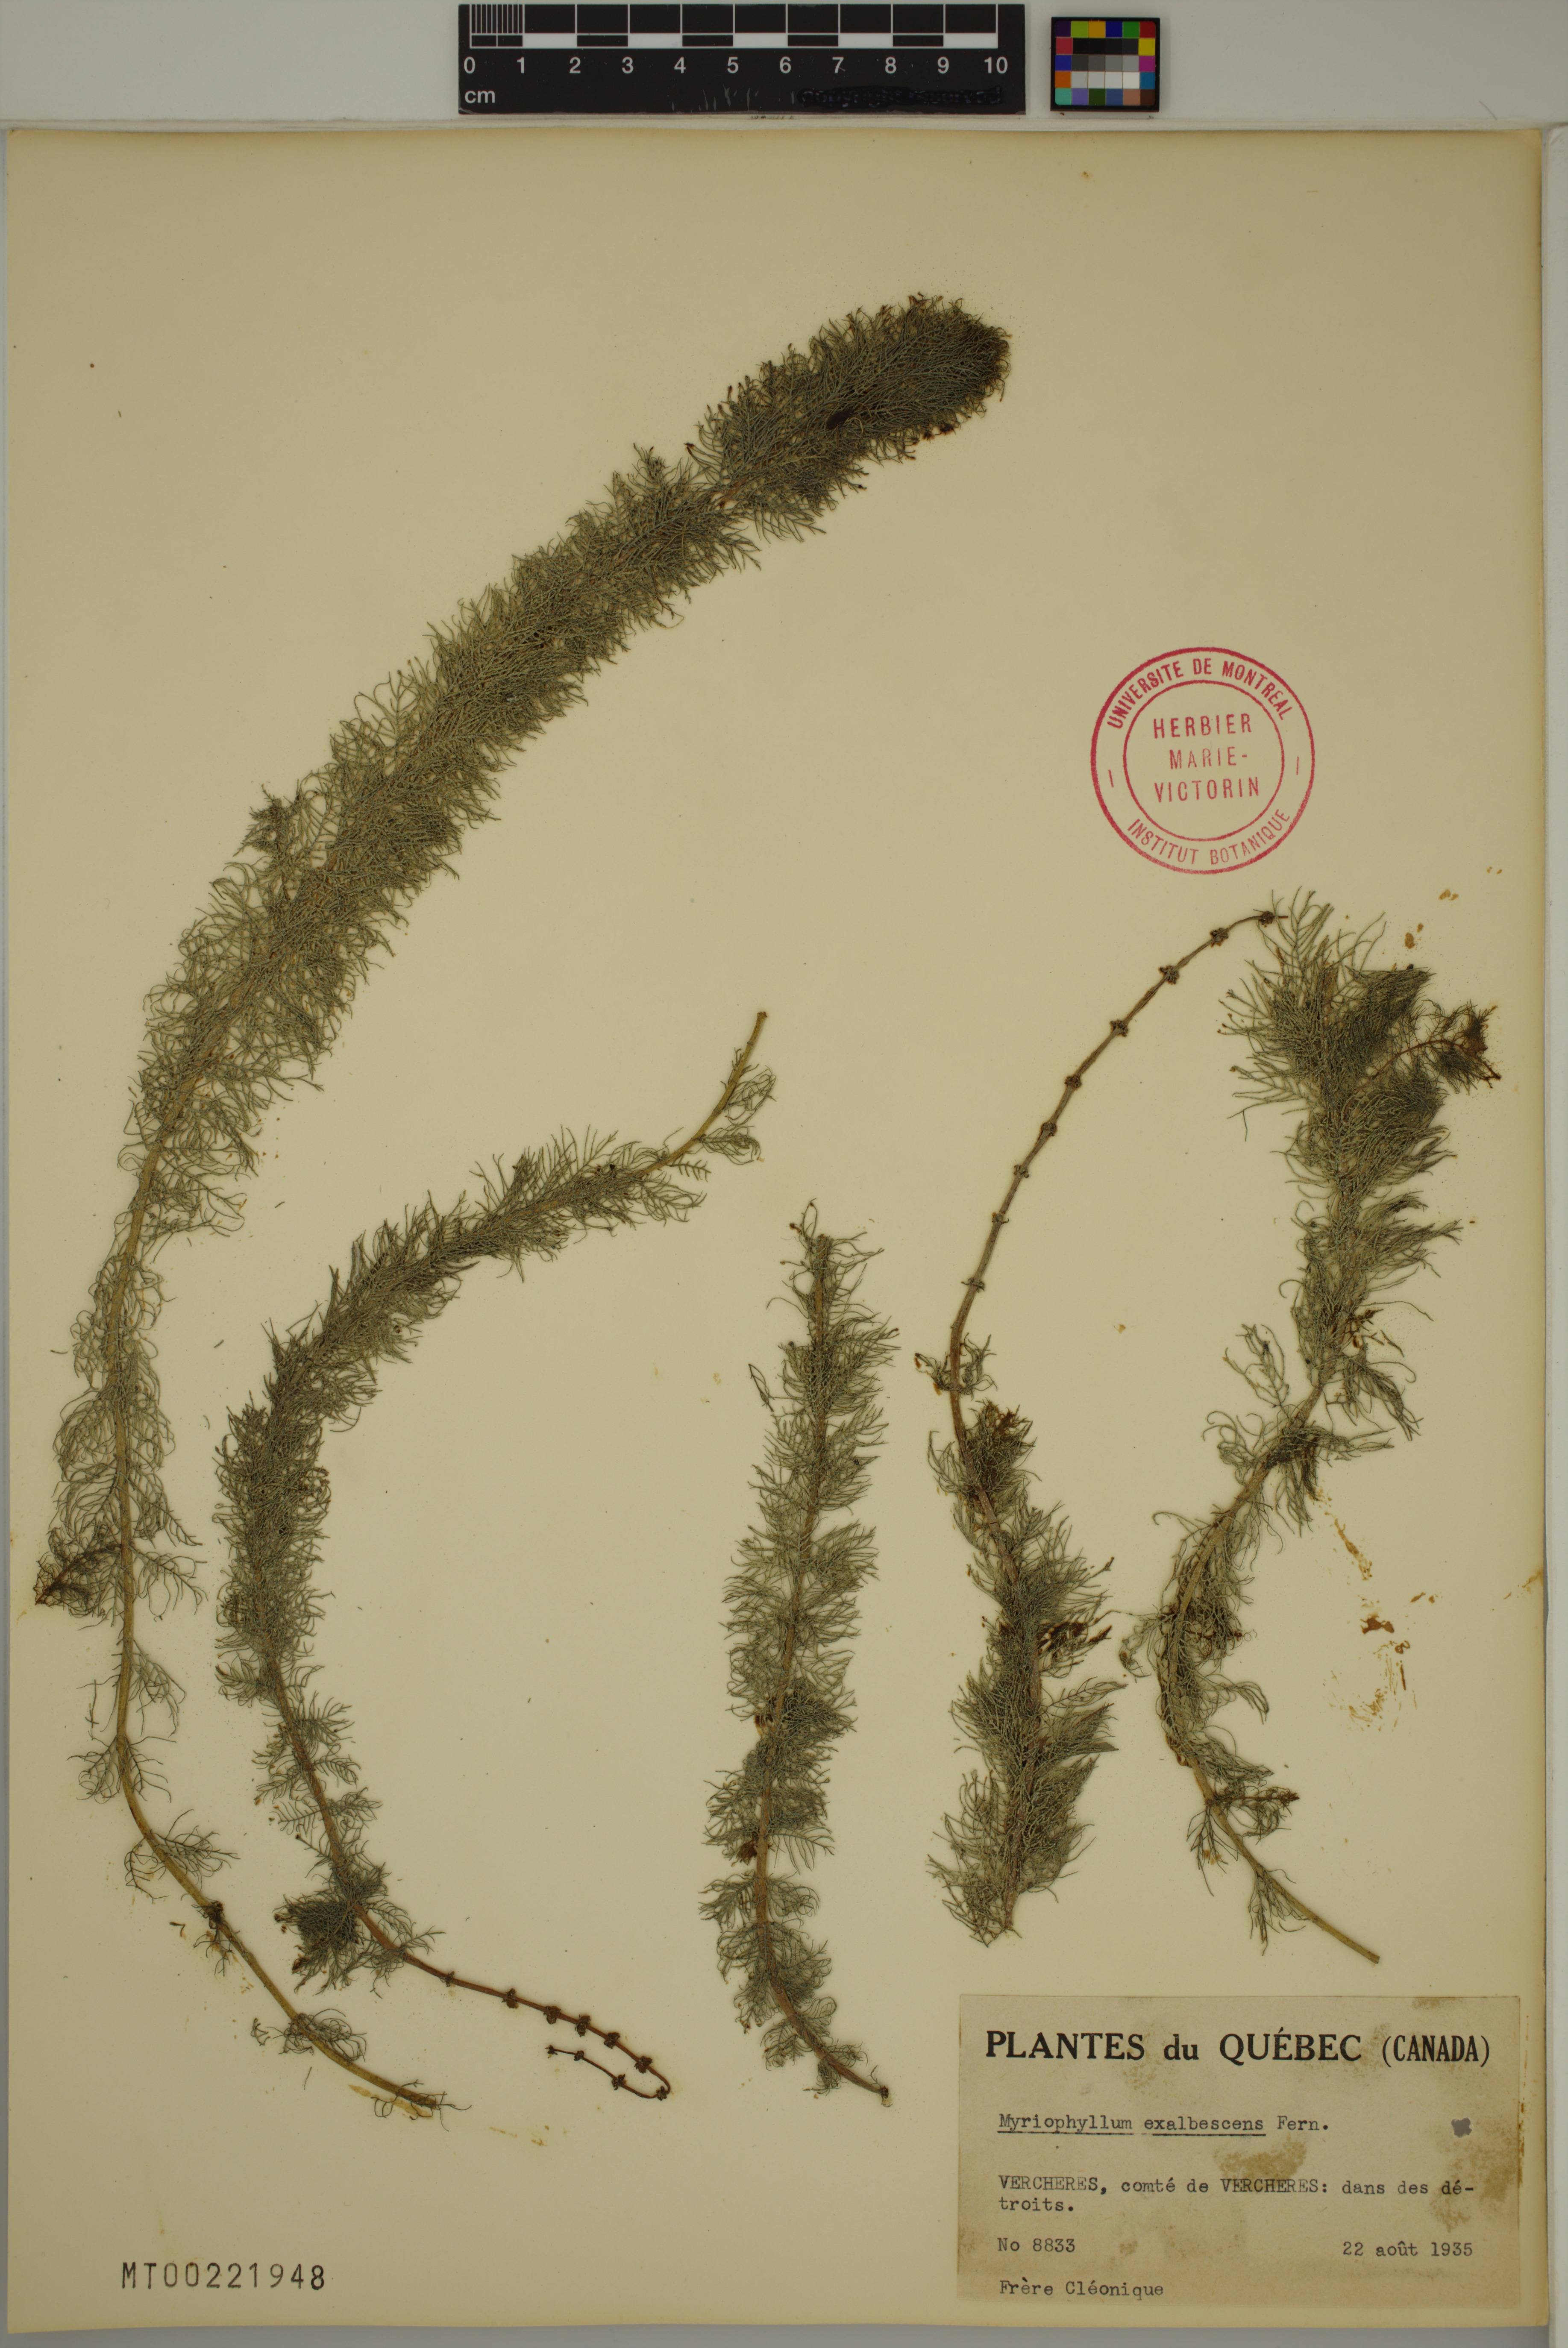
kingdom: Plantae
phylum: Tracheophyta
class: Magnoliopsida
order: Saxifragales
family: Haloragaceae
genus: Myriophyllum
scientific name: Myriophyllum sibiricum
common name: Siberian water-milfoil
